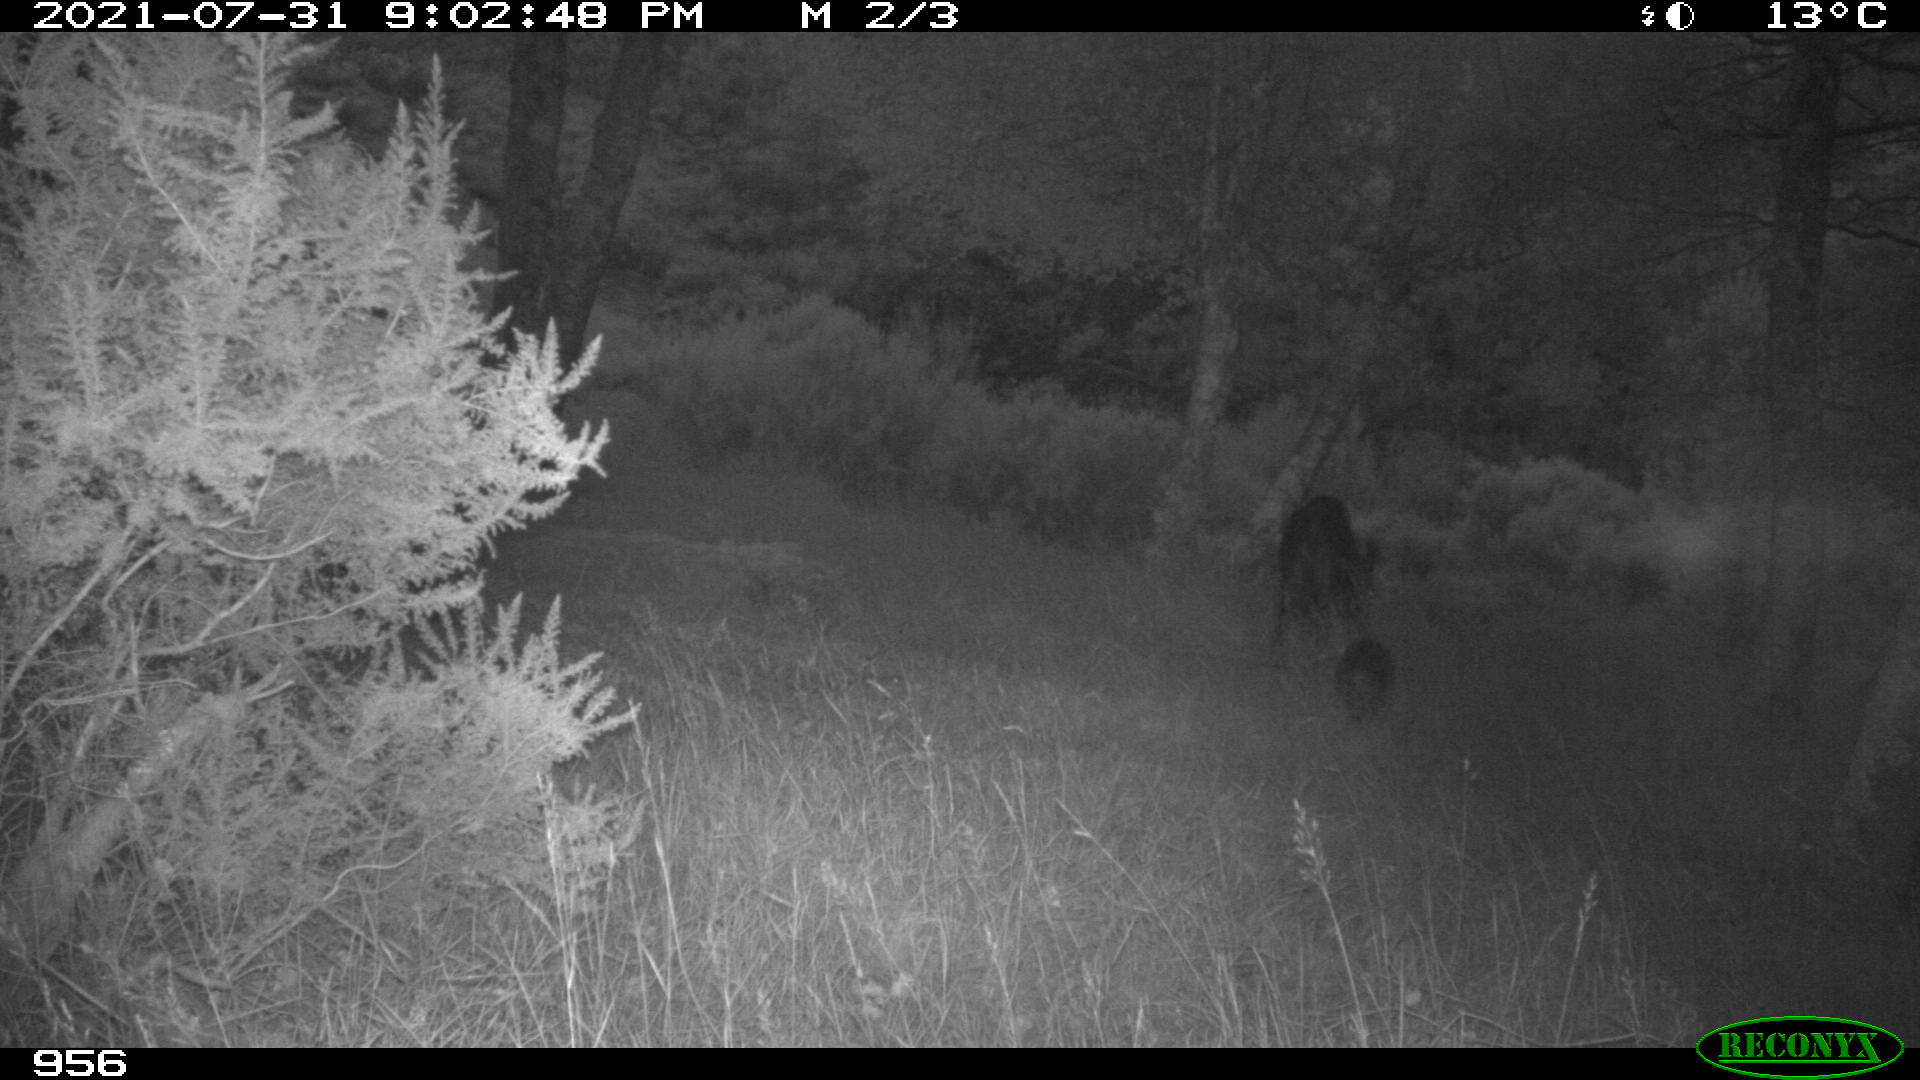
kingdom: Animalia
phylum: Chordata
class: Mammalia
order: Artiodactyla
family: Suidae
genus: Sus
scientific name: Sus scrofa
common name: Wild boar
